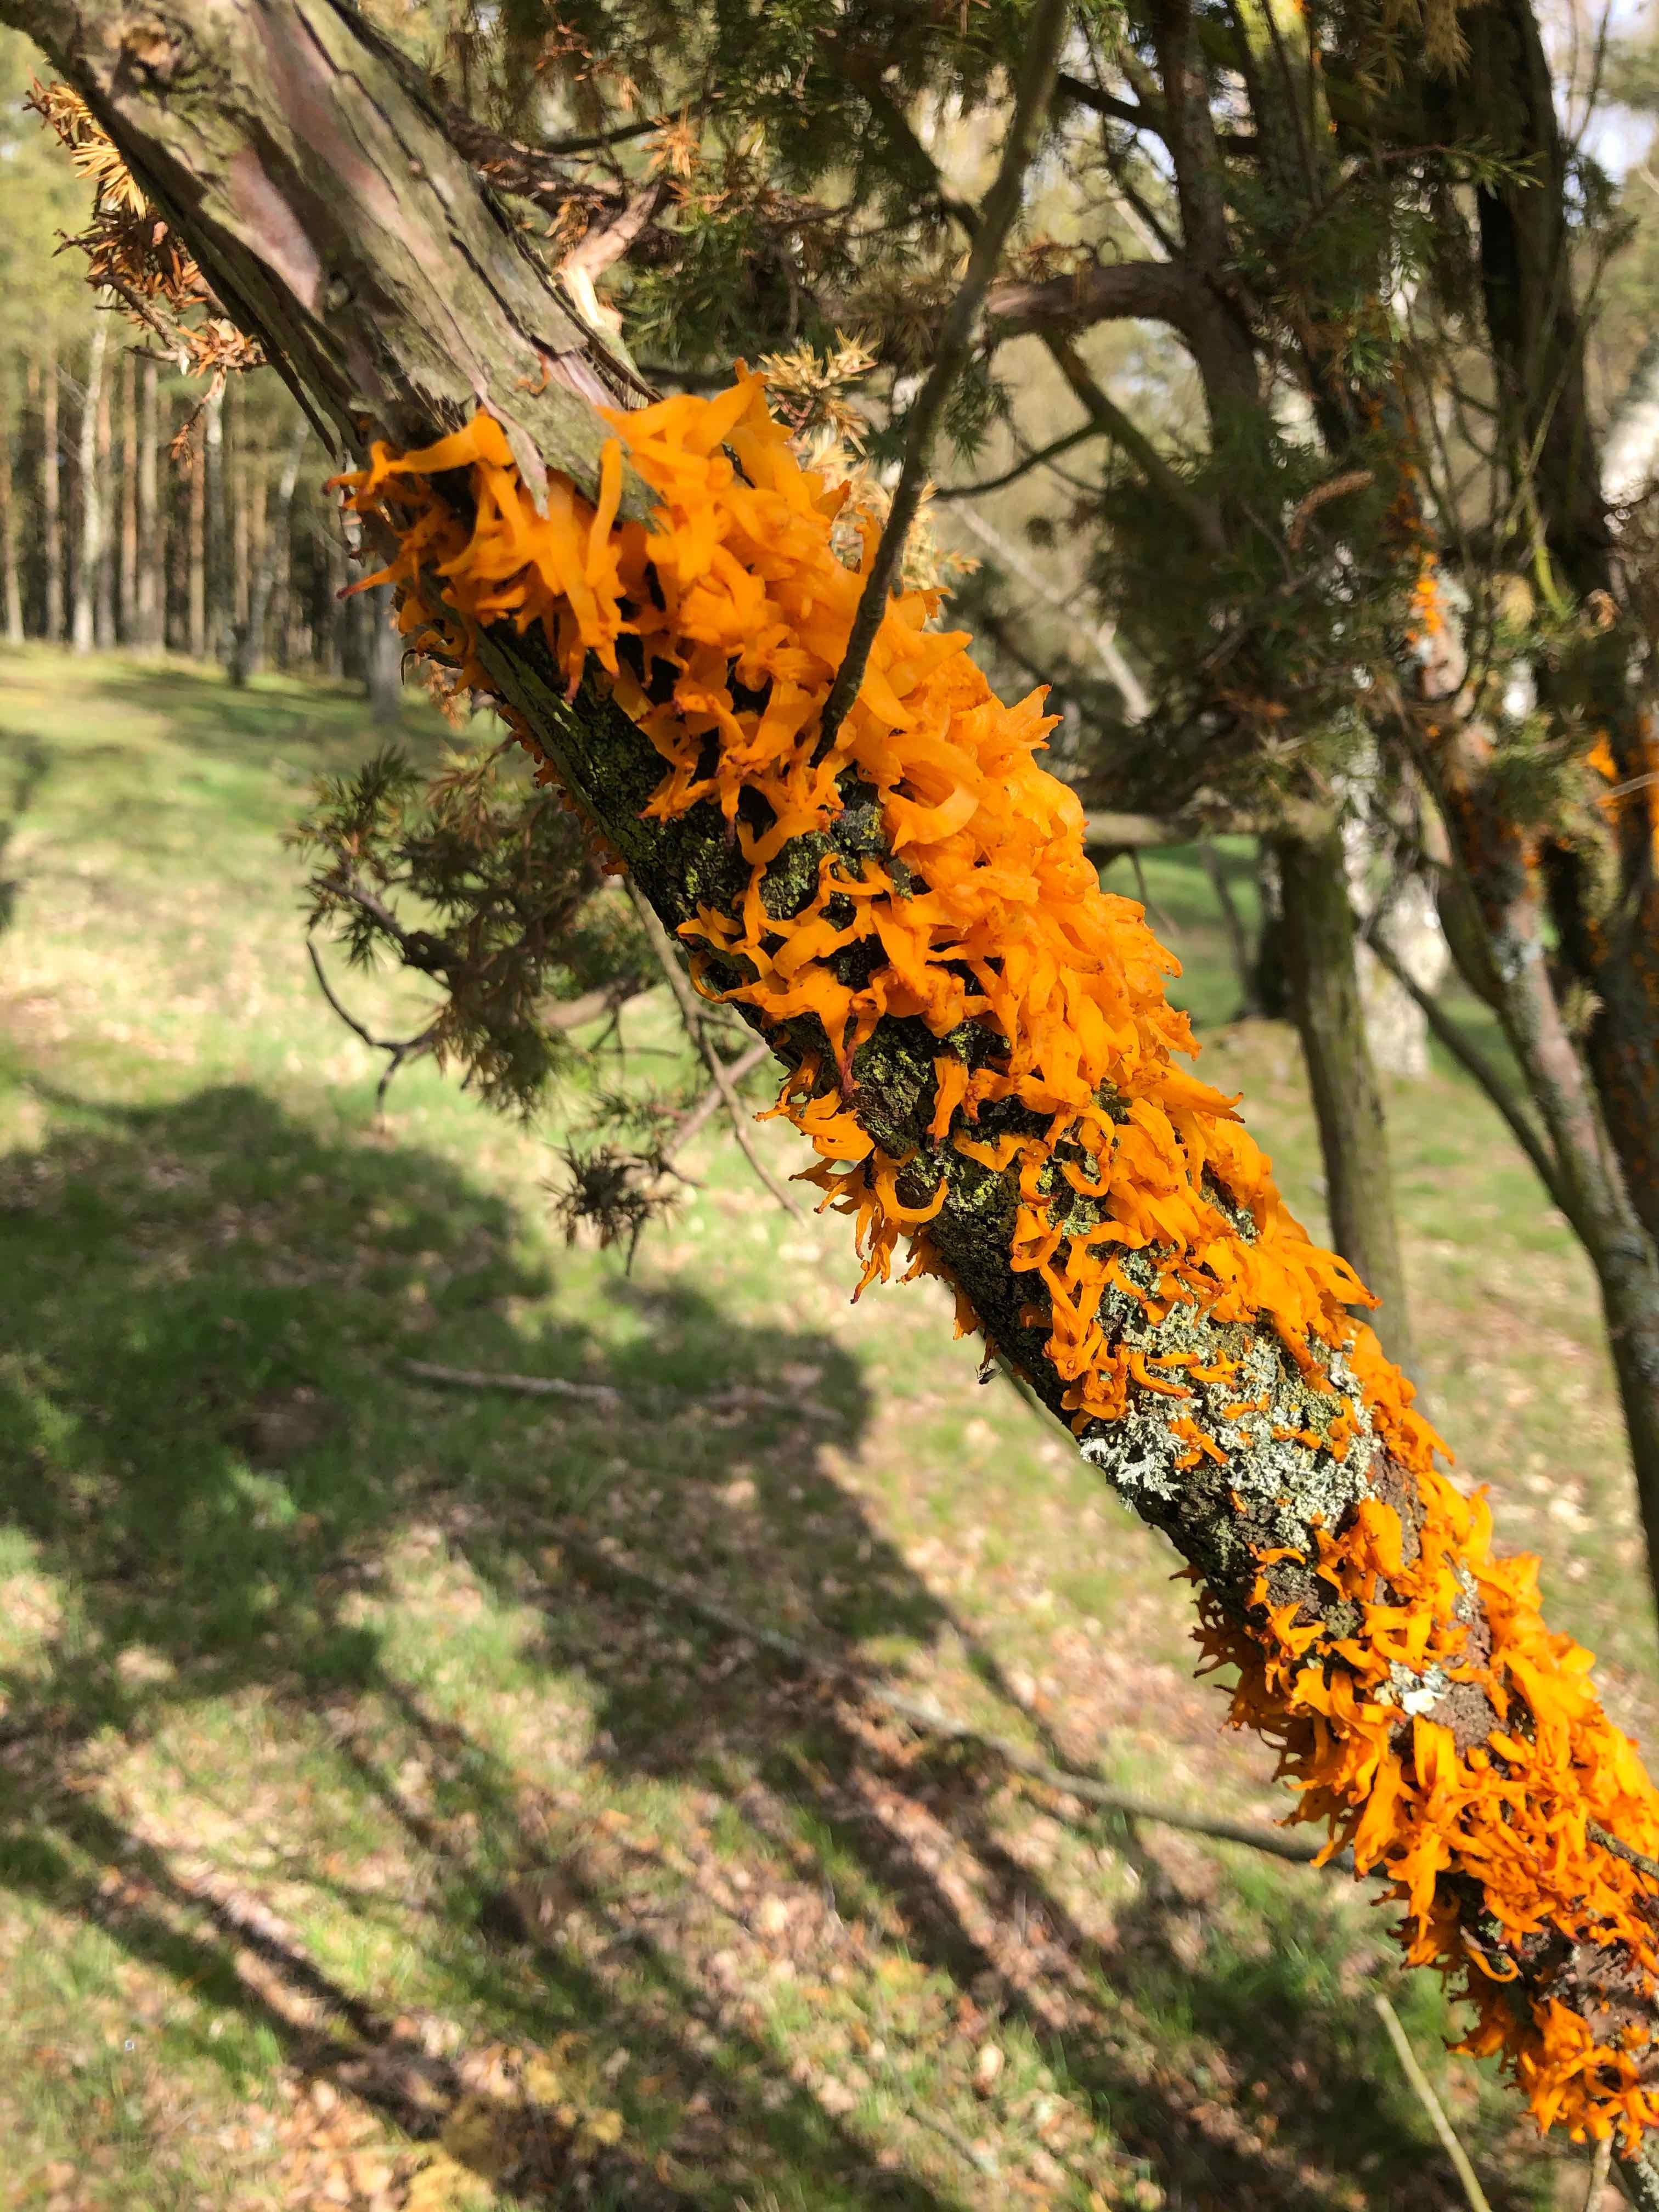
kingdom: Fungi
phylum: Basidiomycota
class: Pucciniomycetes
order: Pucciniales
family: Gymnosporangiaceae
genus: Gymnosporangium
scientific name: Gymnosporangium clavariiforme
